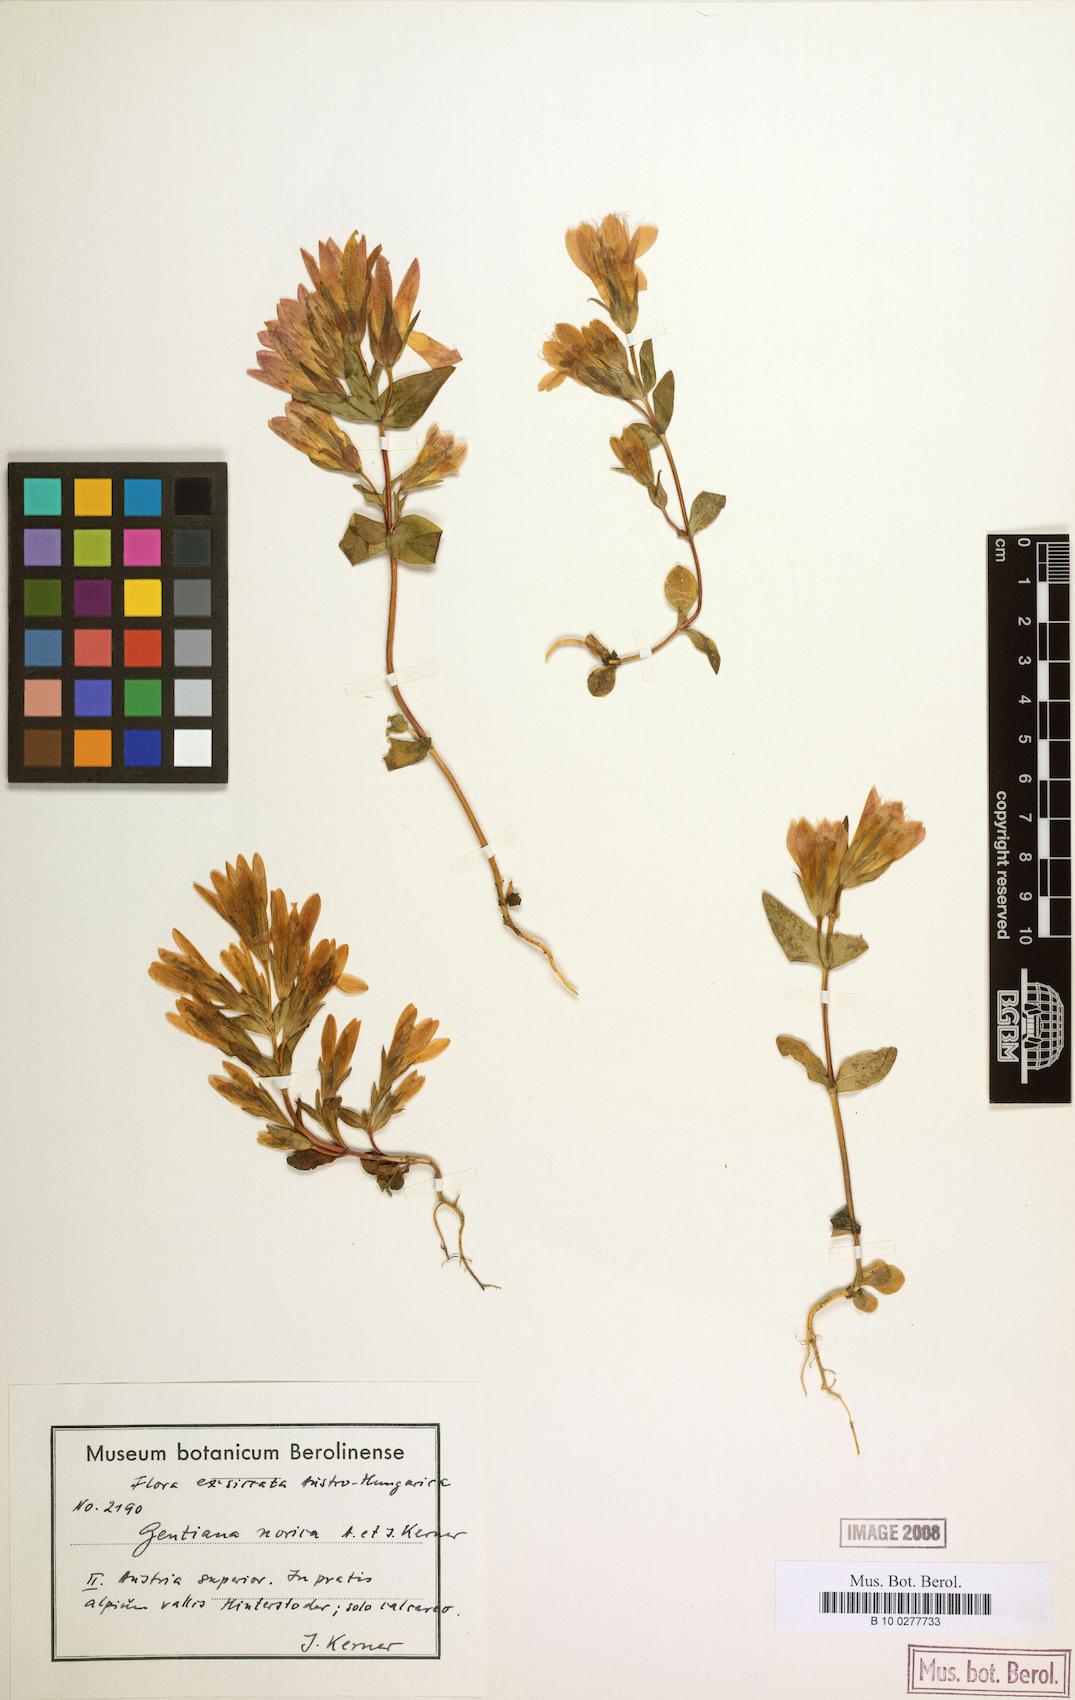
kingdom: Plantae
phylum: Tracheophyta
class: Magnoliopsida
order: Gentianales
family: Gentianaceae
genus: Gentianella
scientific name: Gentianella obtusifolia
